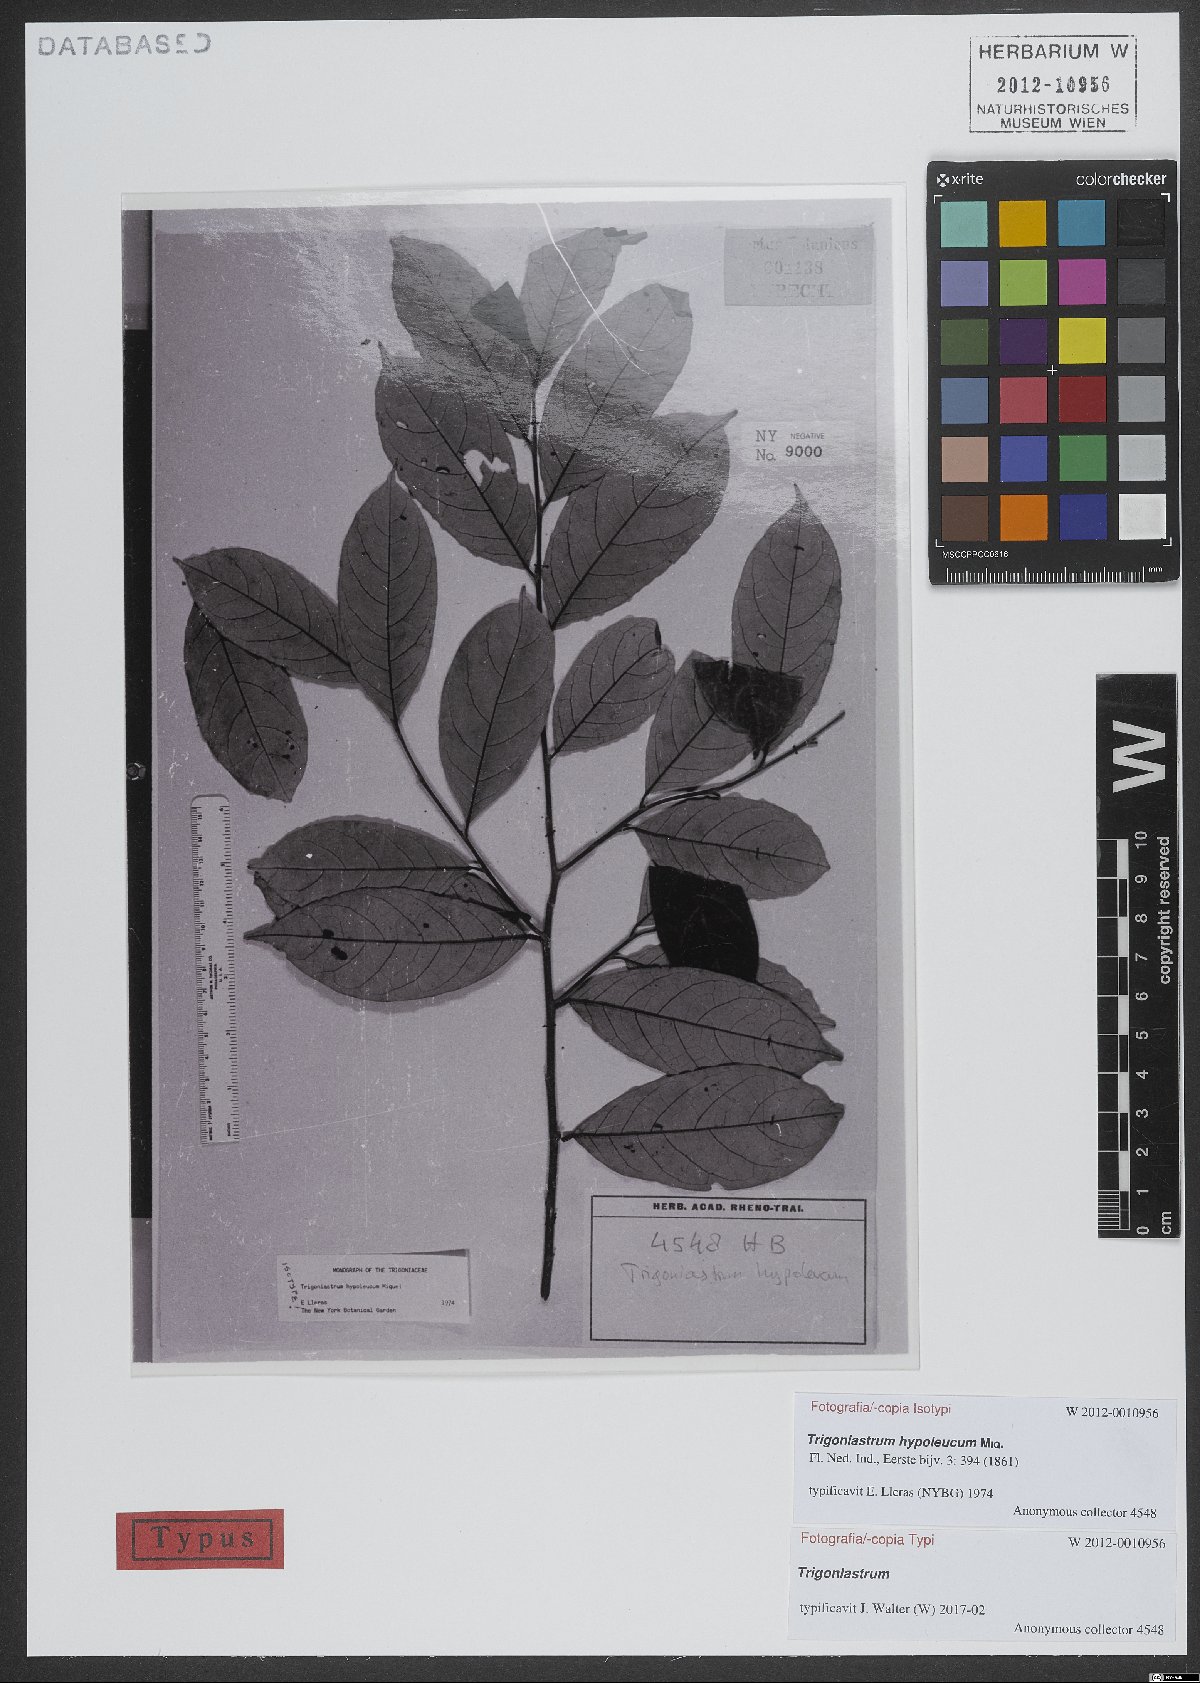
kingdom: Plantae
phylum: Tracheophyta
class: Magnoliopsida
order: Malpighiales
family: Trigoniaceae
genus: Trigoniastrum
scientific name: Trigoniastrum hypoleucum
